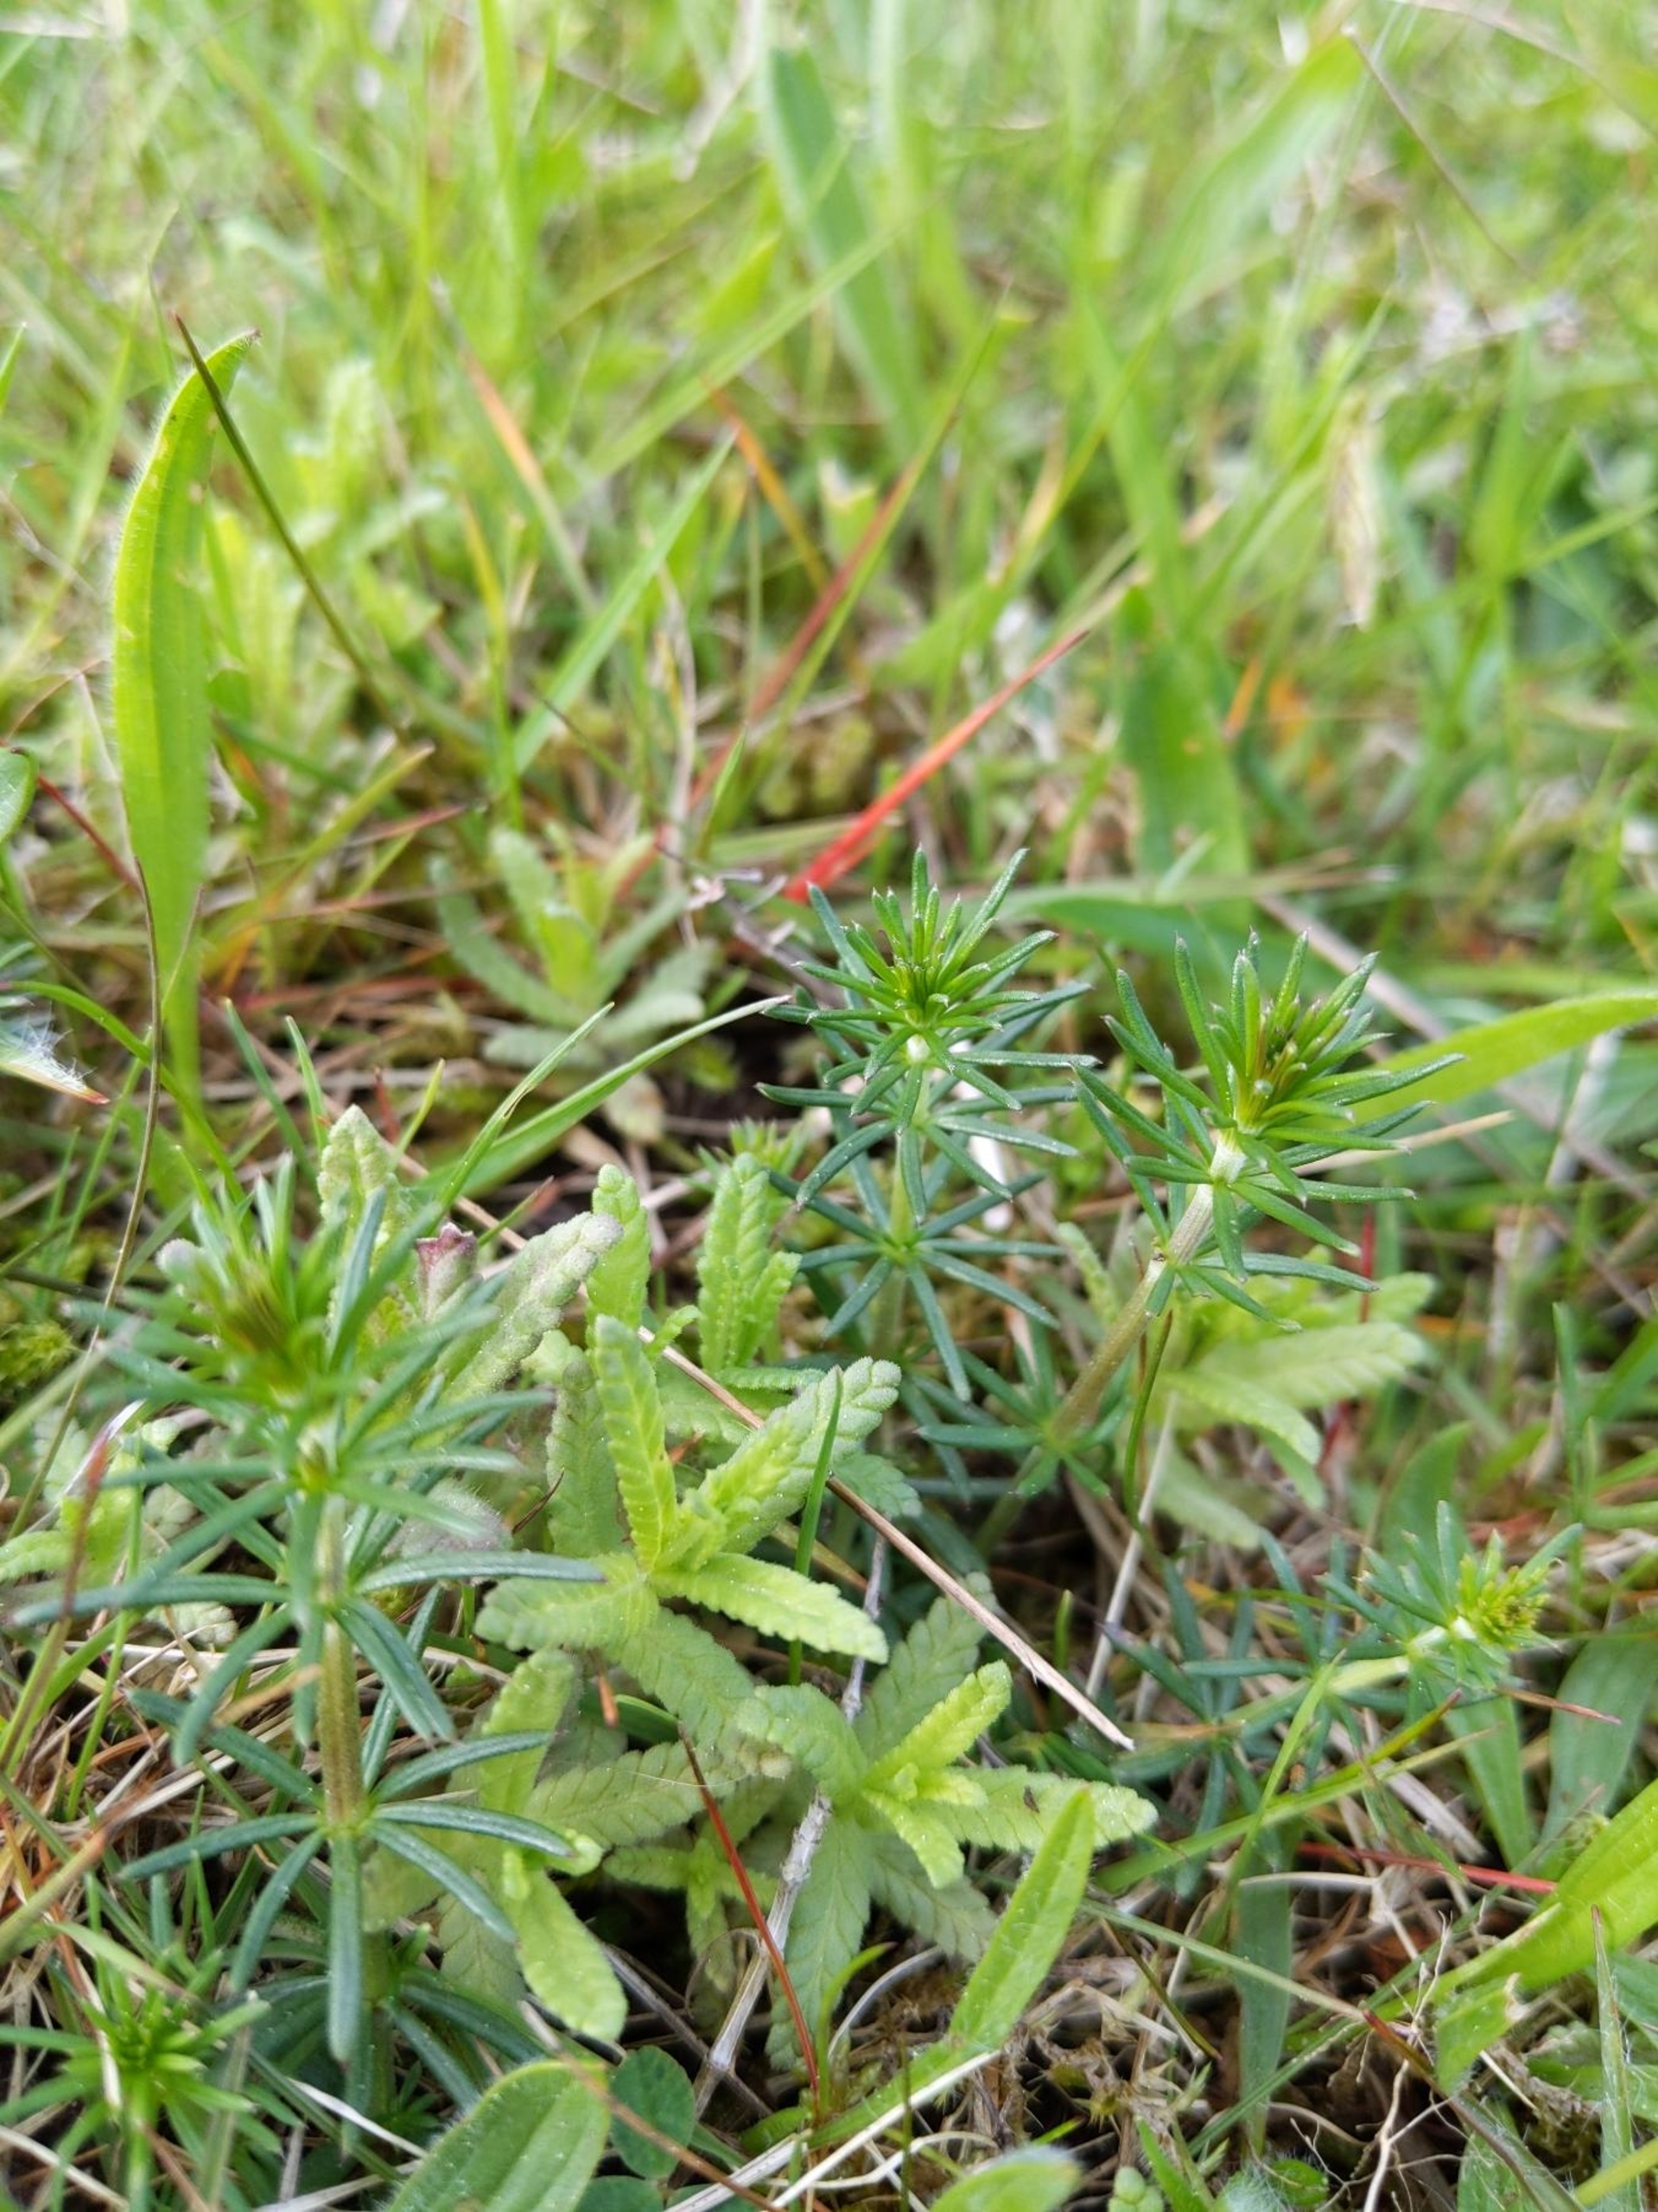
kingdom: Plantae
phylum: Tracheophyta
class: Magnoliopsida
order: Gentianales
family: Rubiaceae
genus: Galium
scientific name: Galium verum
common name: Gul snerre
